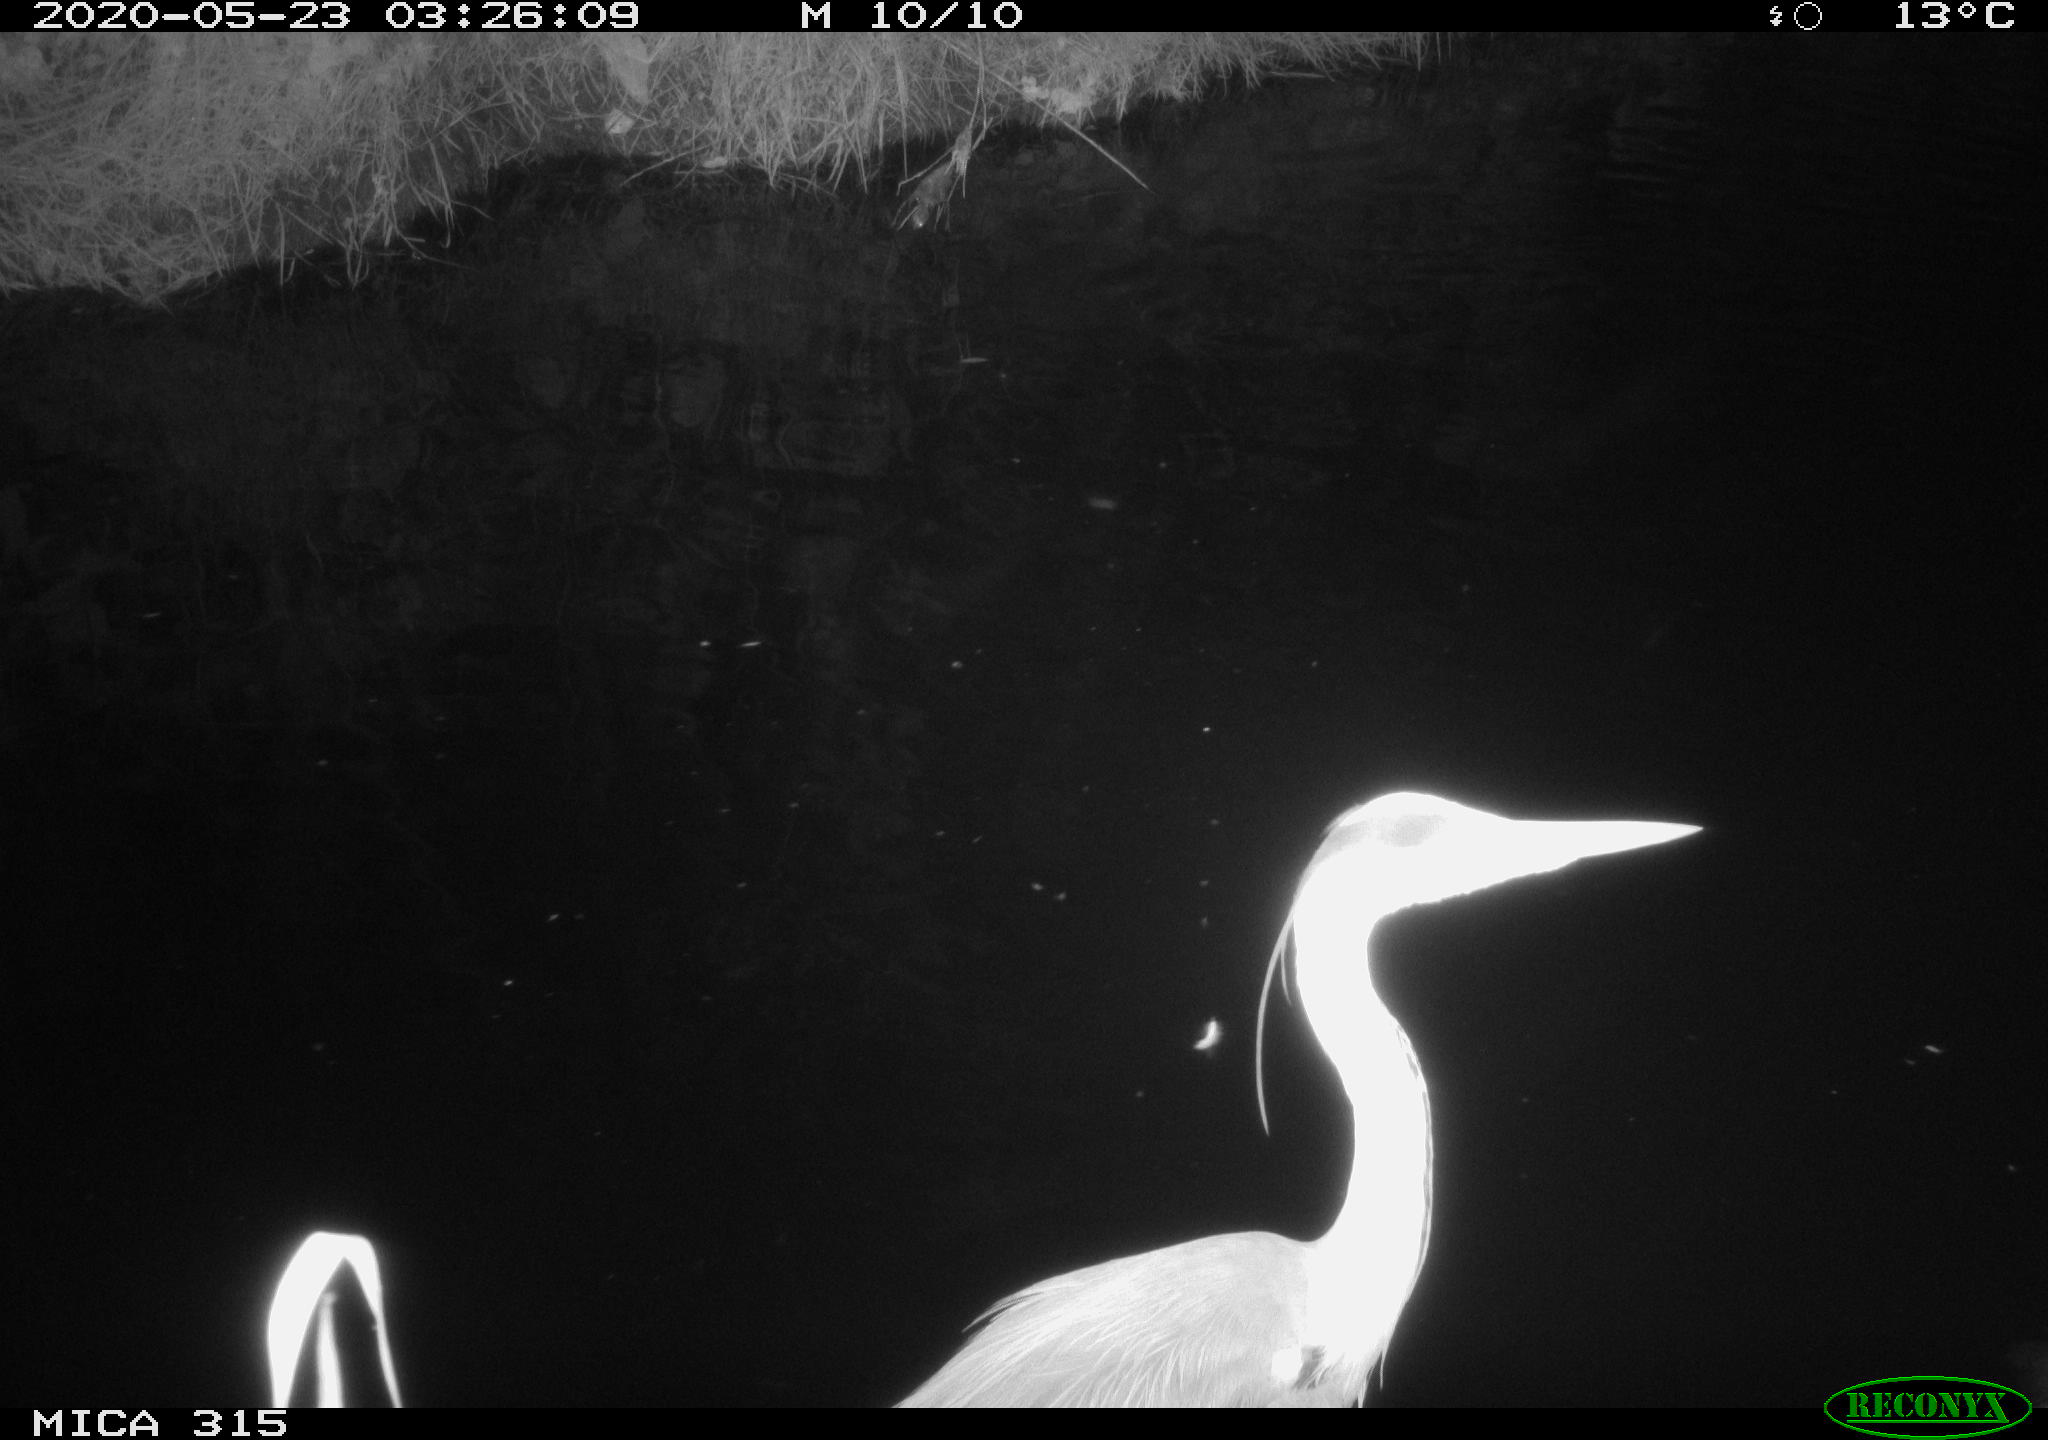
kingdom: Animalia
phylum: Chordata
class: Aves
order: Anseriformes
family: Anatidae
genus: Anas
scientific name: Anas platyrhynchos
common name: Mallard
